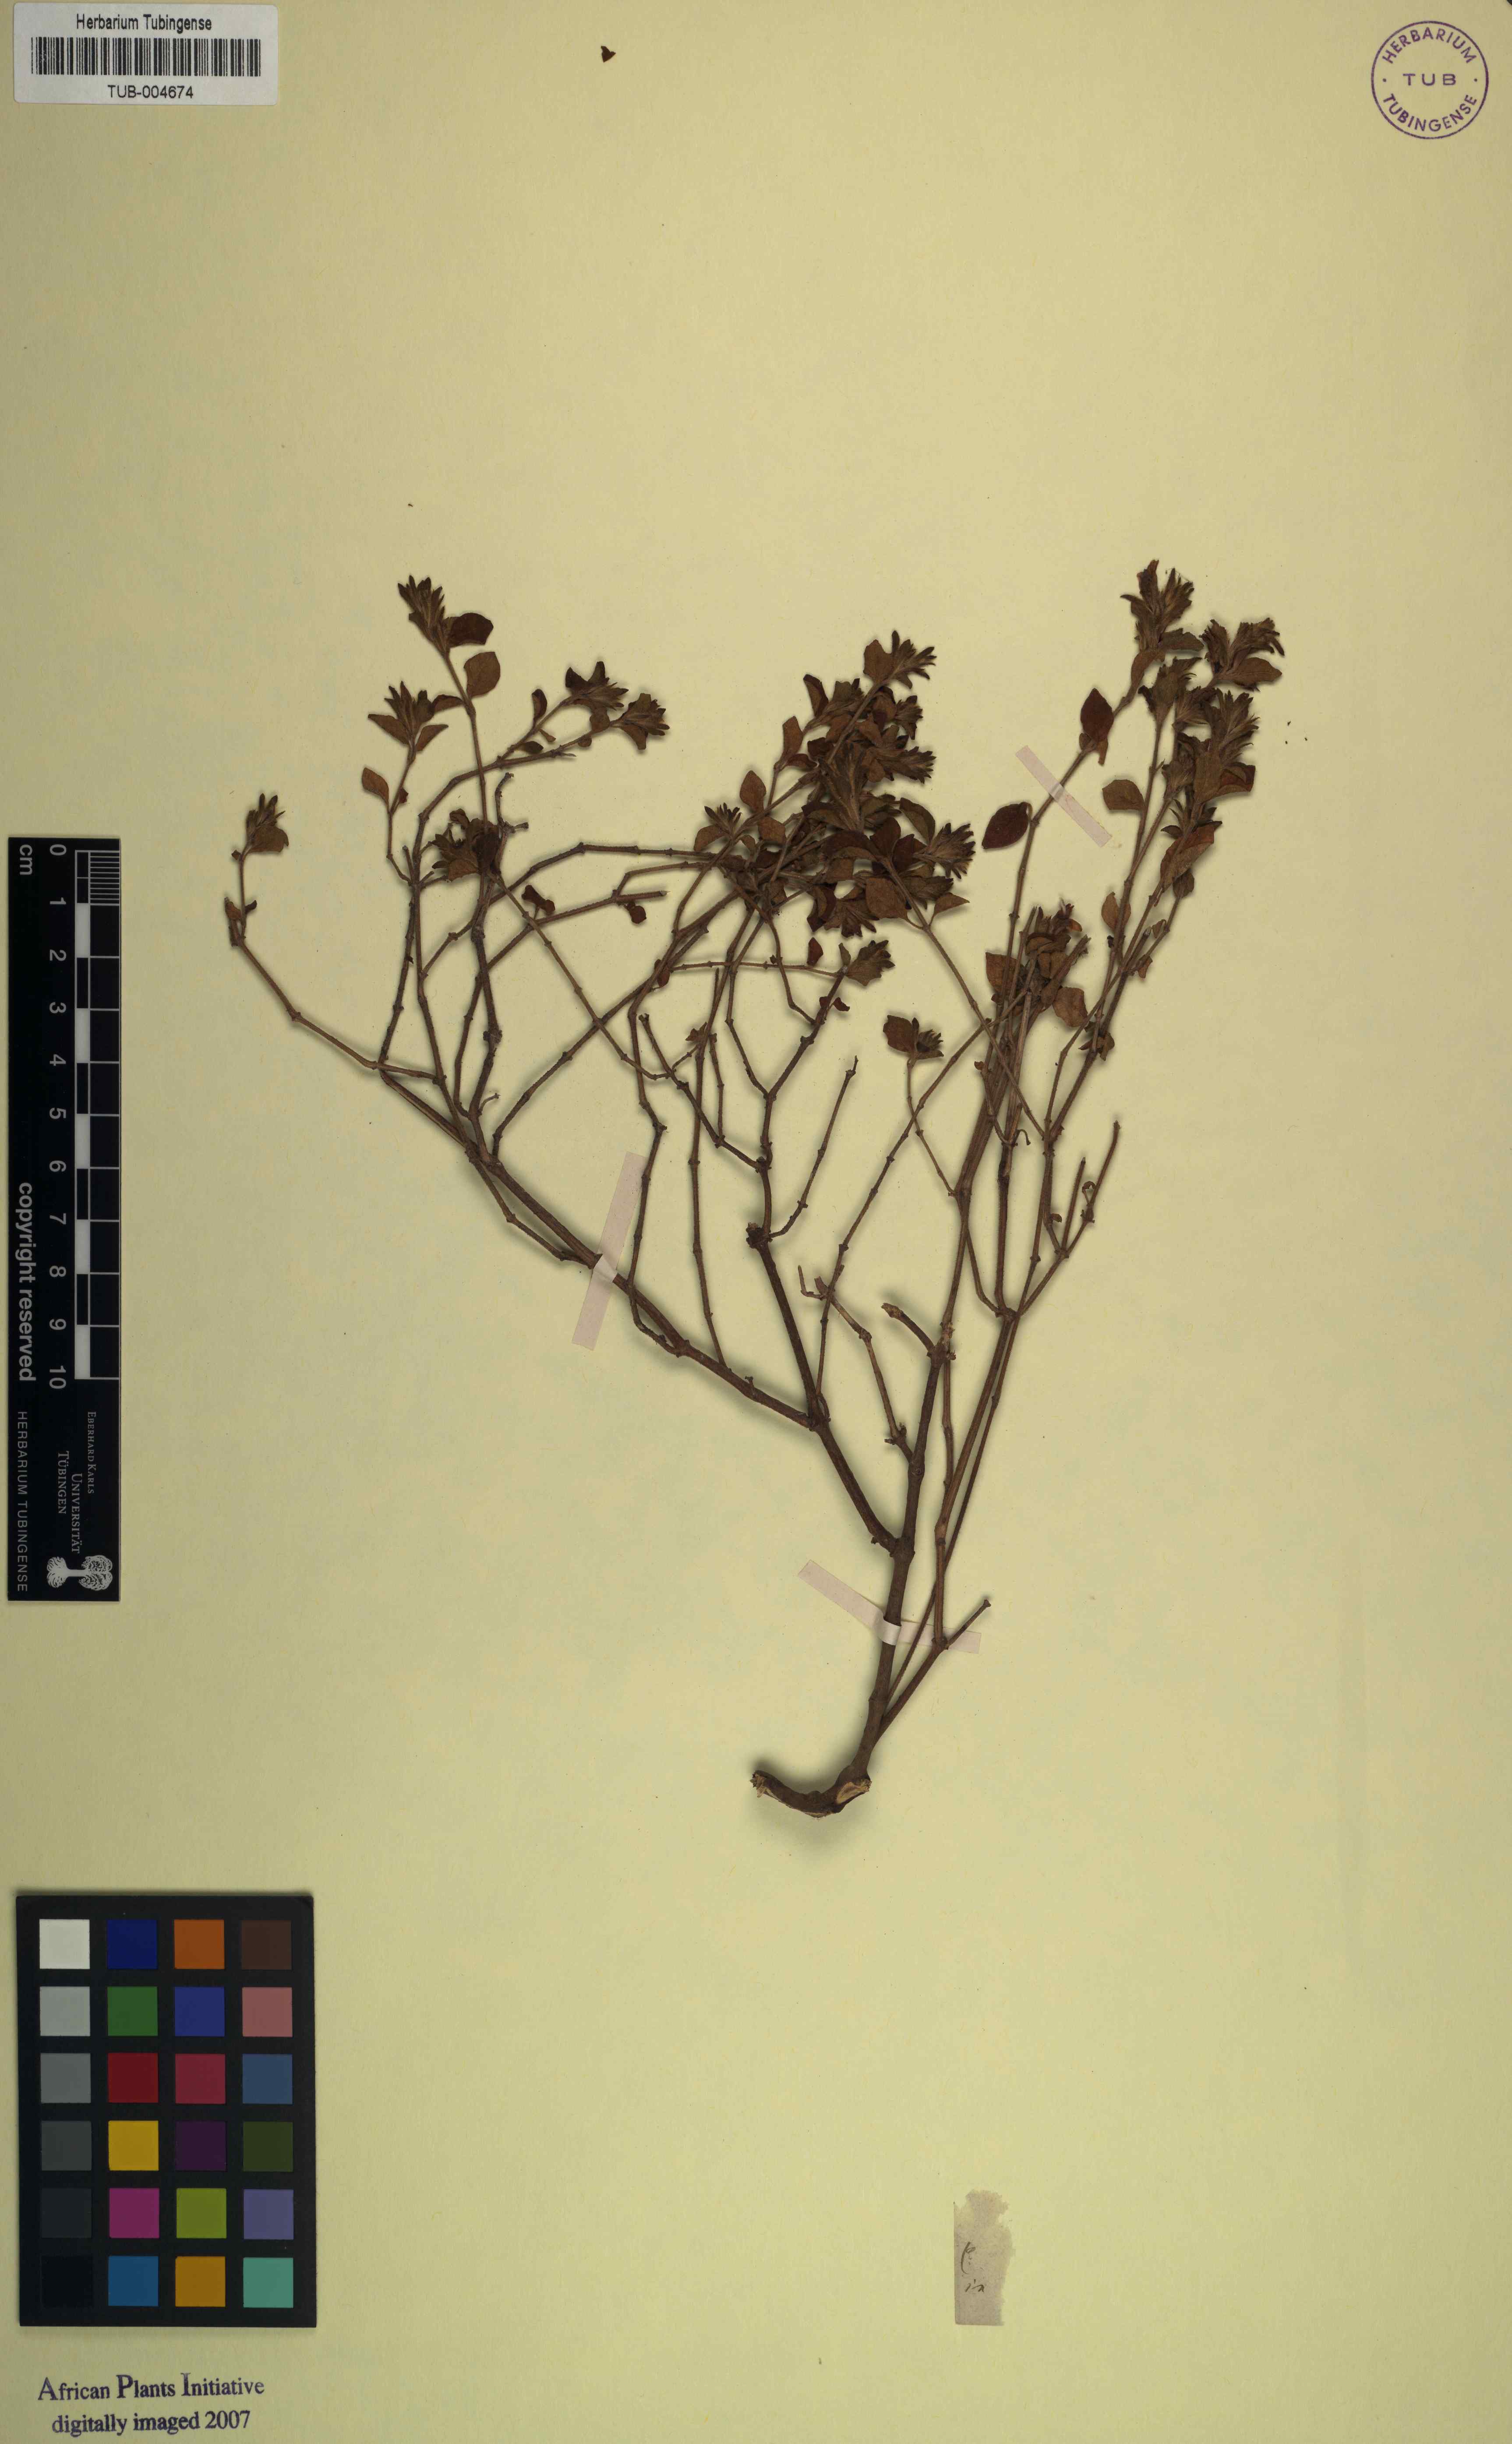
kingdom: Plantae
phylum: Tracheophyta
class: Magnoliopsida
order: Lamiales
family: Acanthaceae
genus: Justicia
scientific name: Justicia rubicunda
